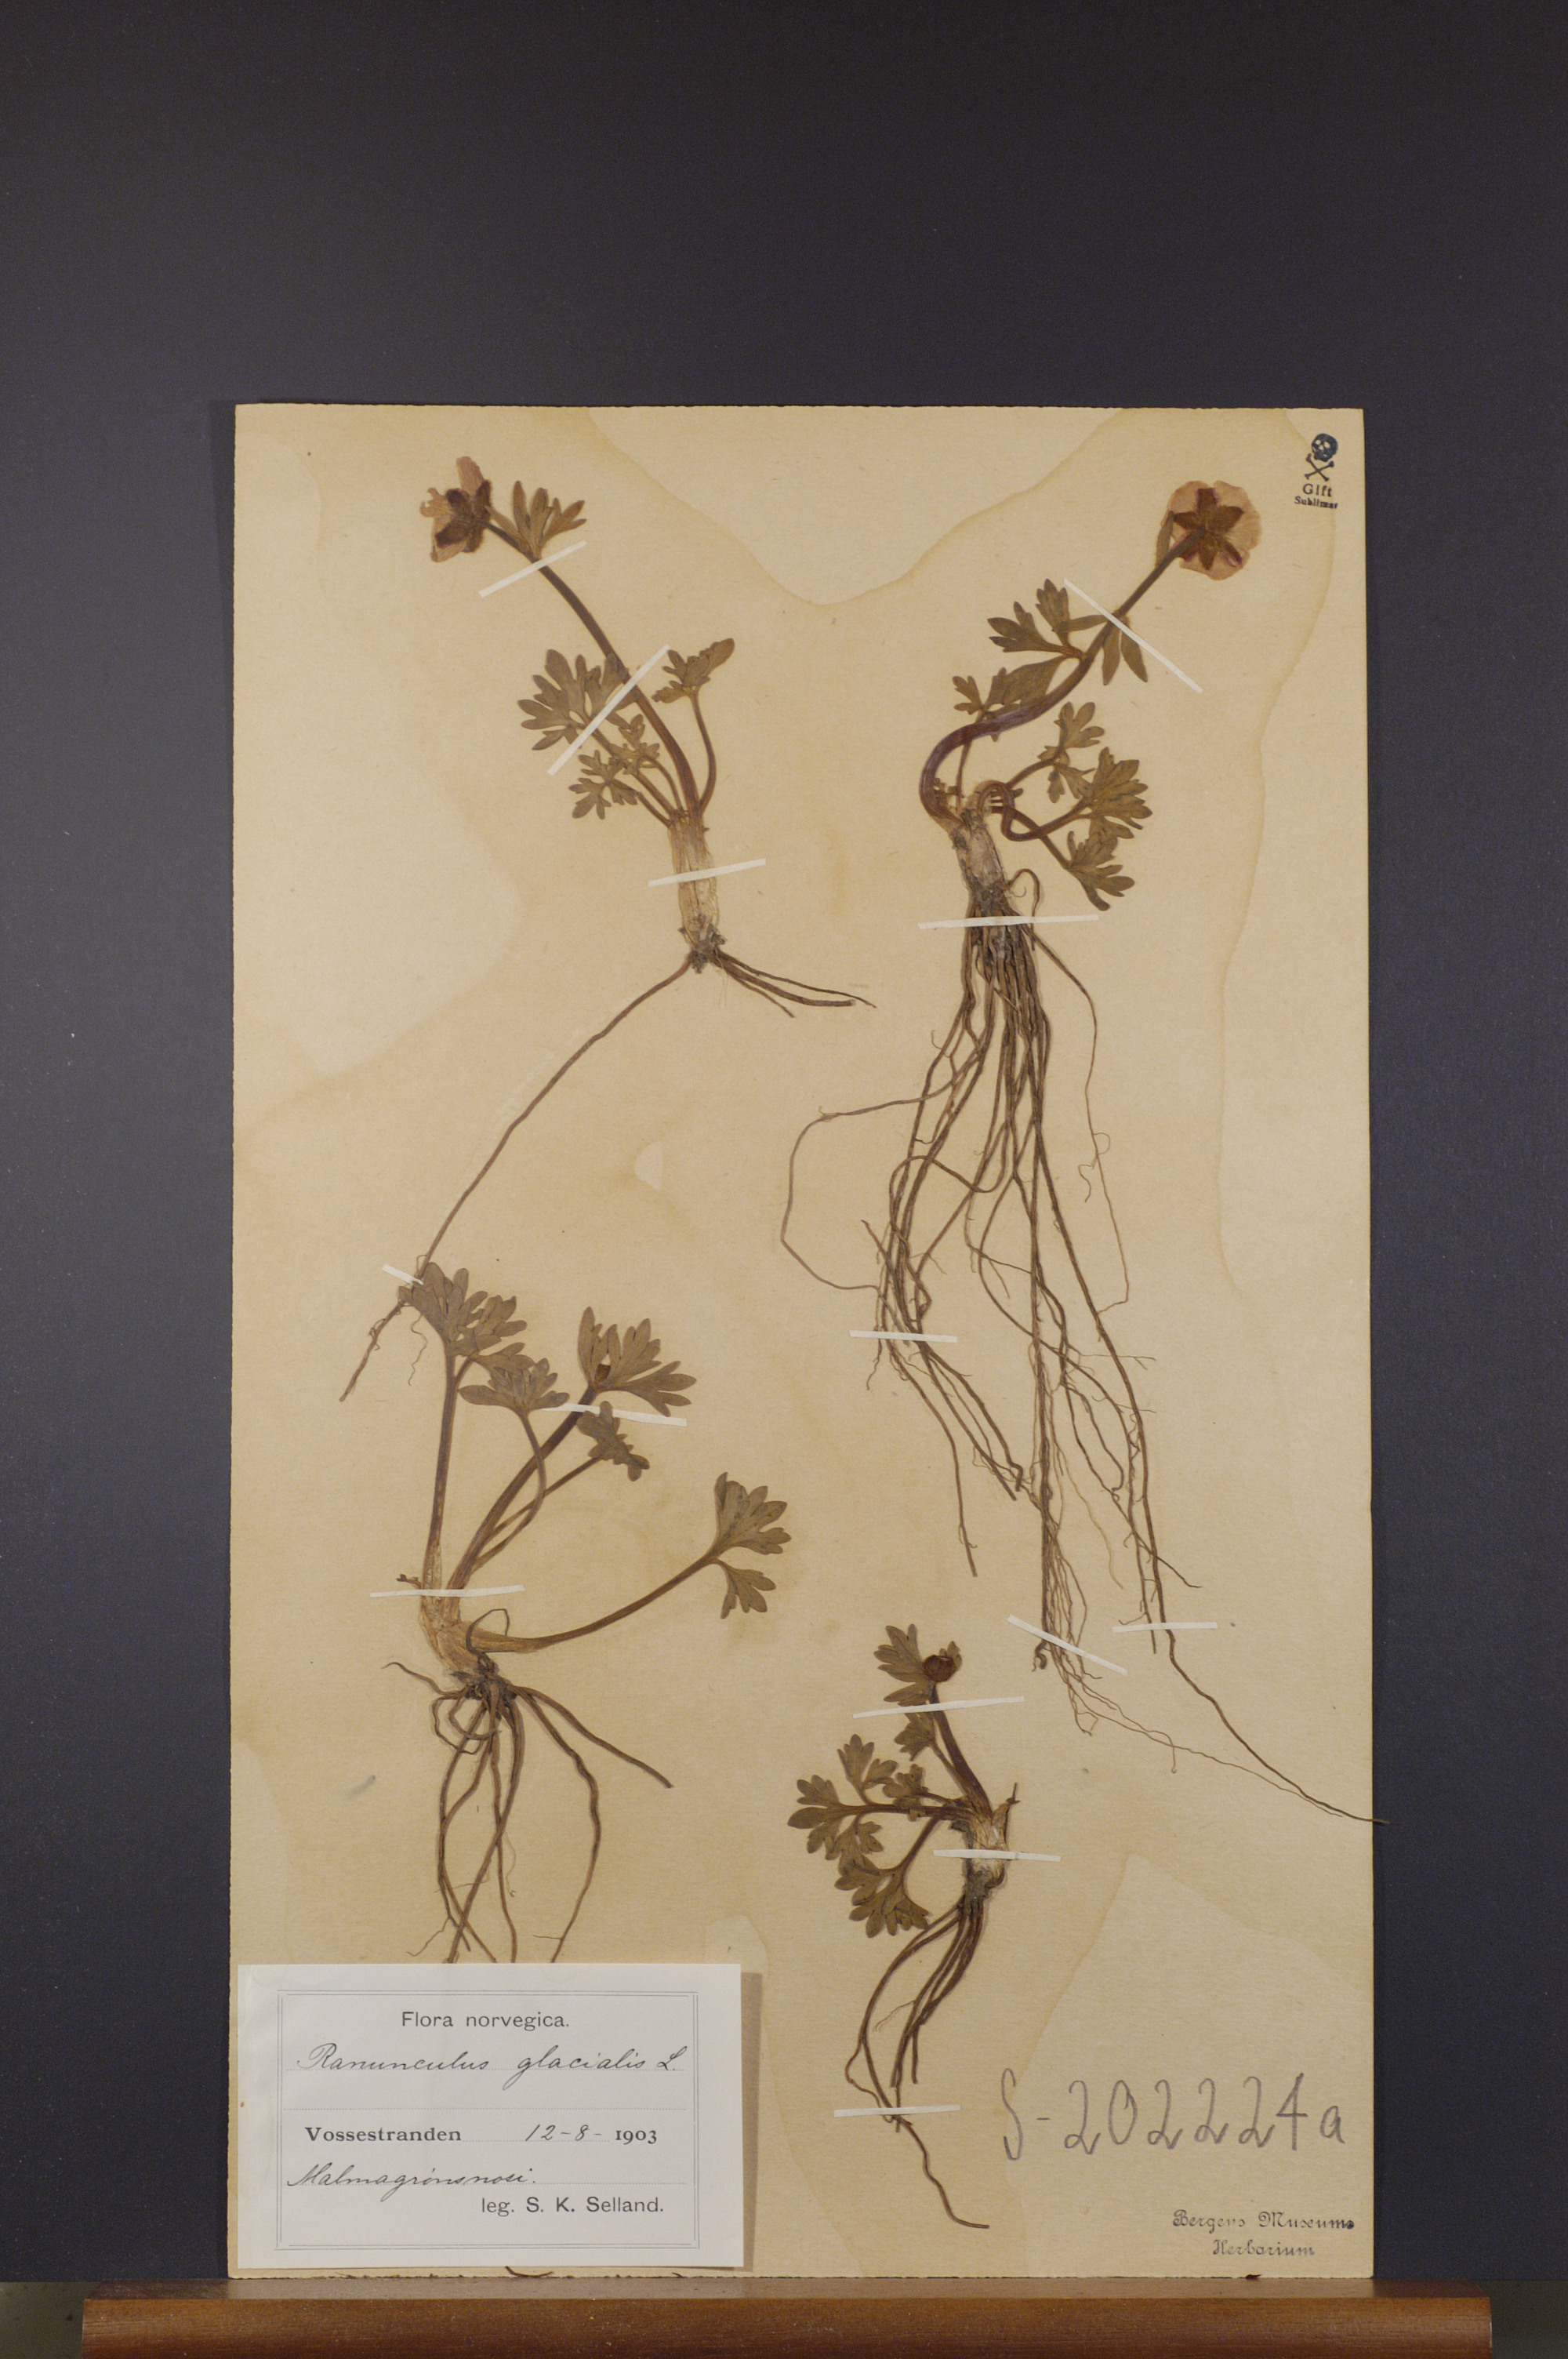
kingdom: Plantae
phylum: Tracheophyta
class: Magnoliopsida
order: Ranunculales
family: Ranunculaceae
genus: Ranunculus
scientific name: Ranunculus glacialis
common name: Glacier buttercup
